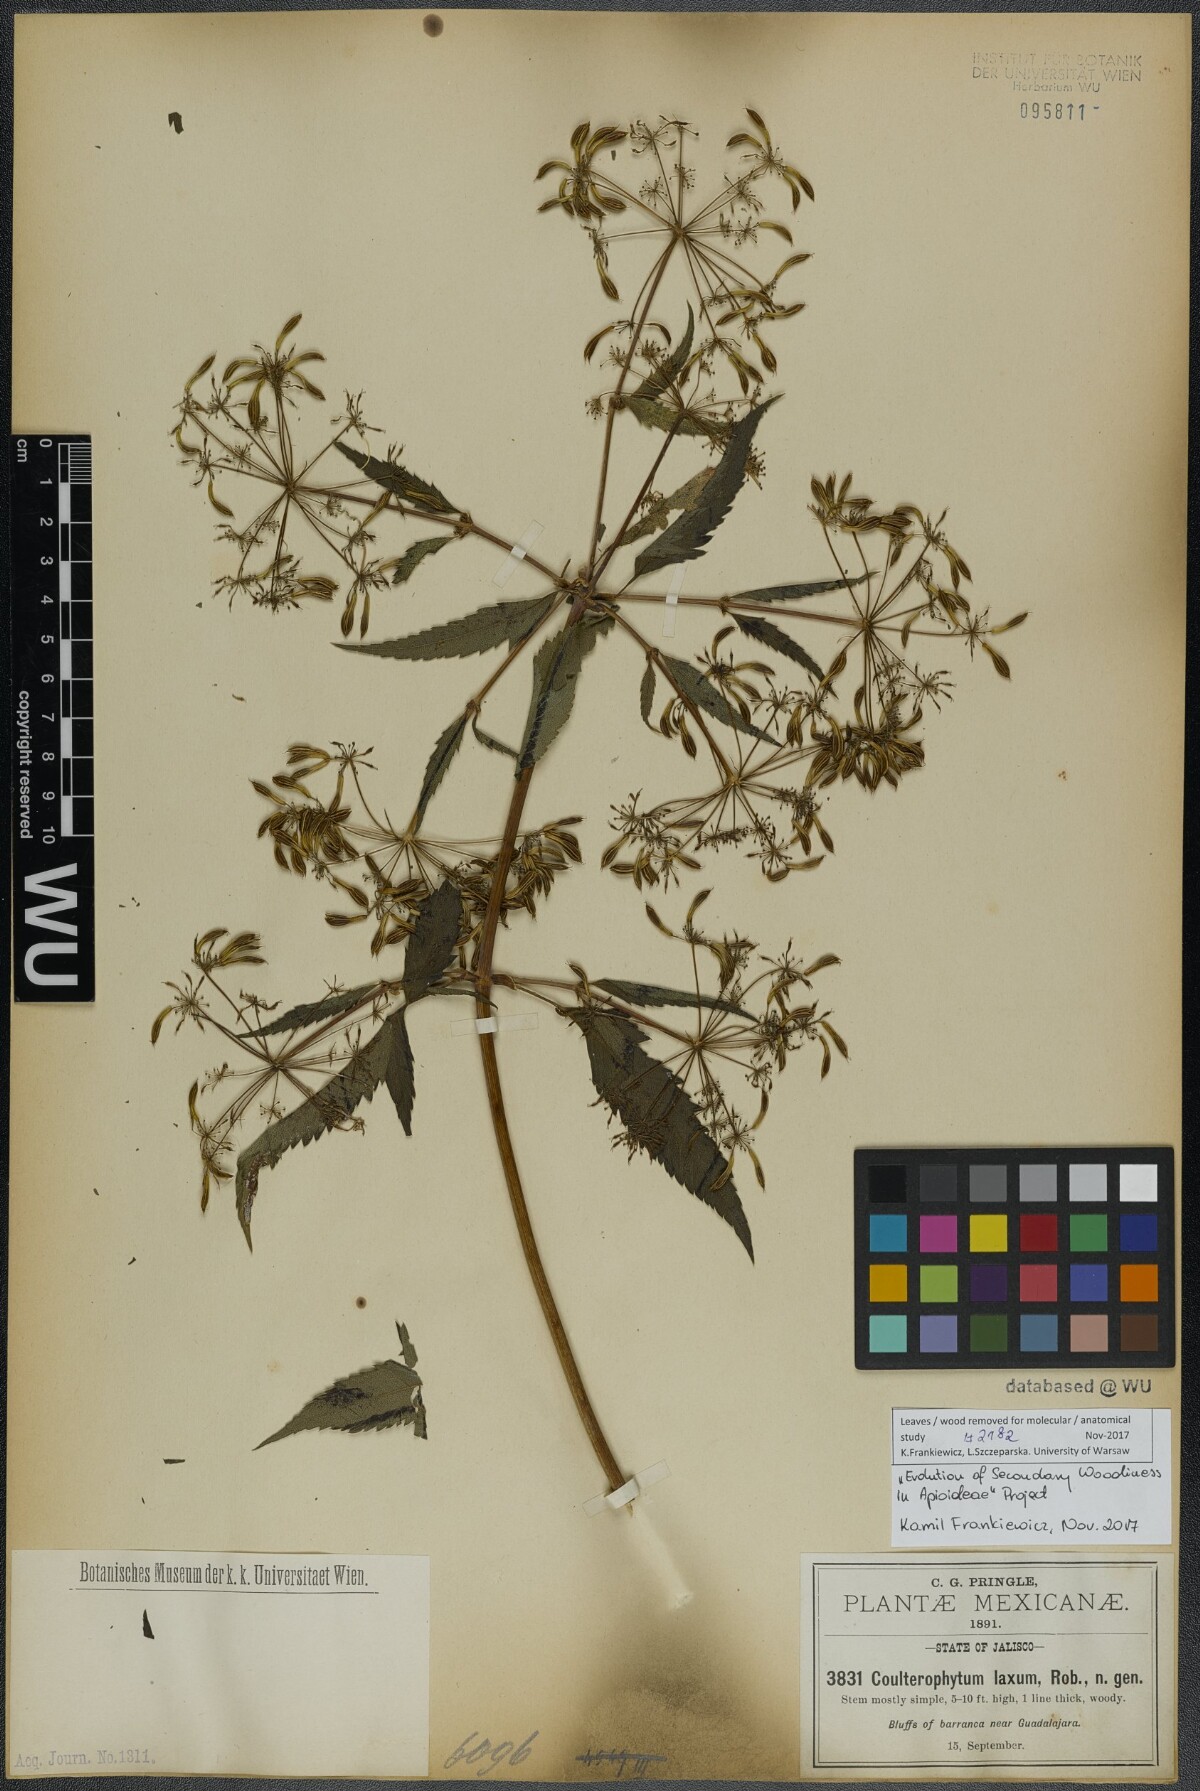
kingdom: Plantae
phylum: Tracheophyta
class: Magnoliopsida
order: Apiales
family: Apiaceae
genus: Coulterophytum
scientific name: Coulterophytum laxum
